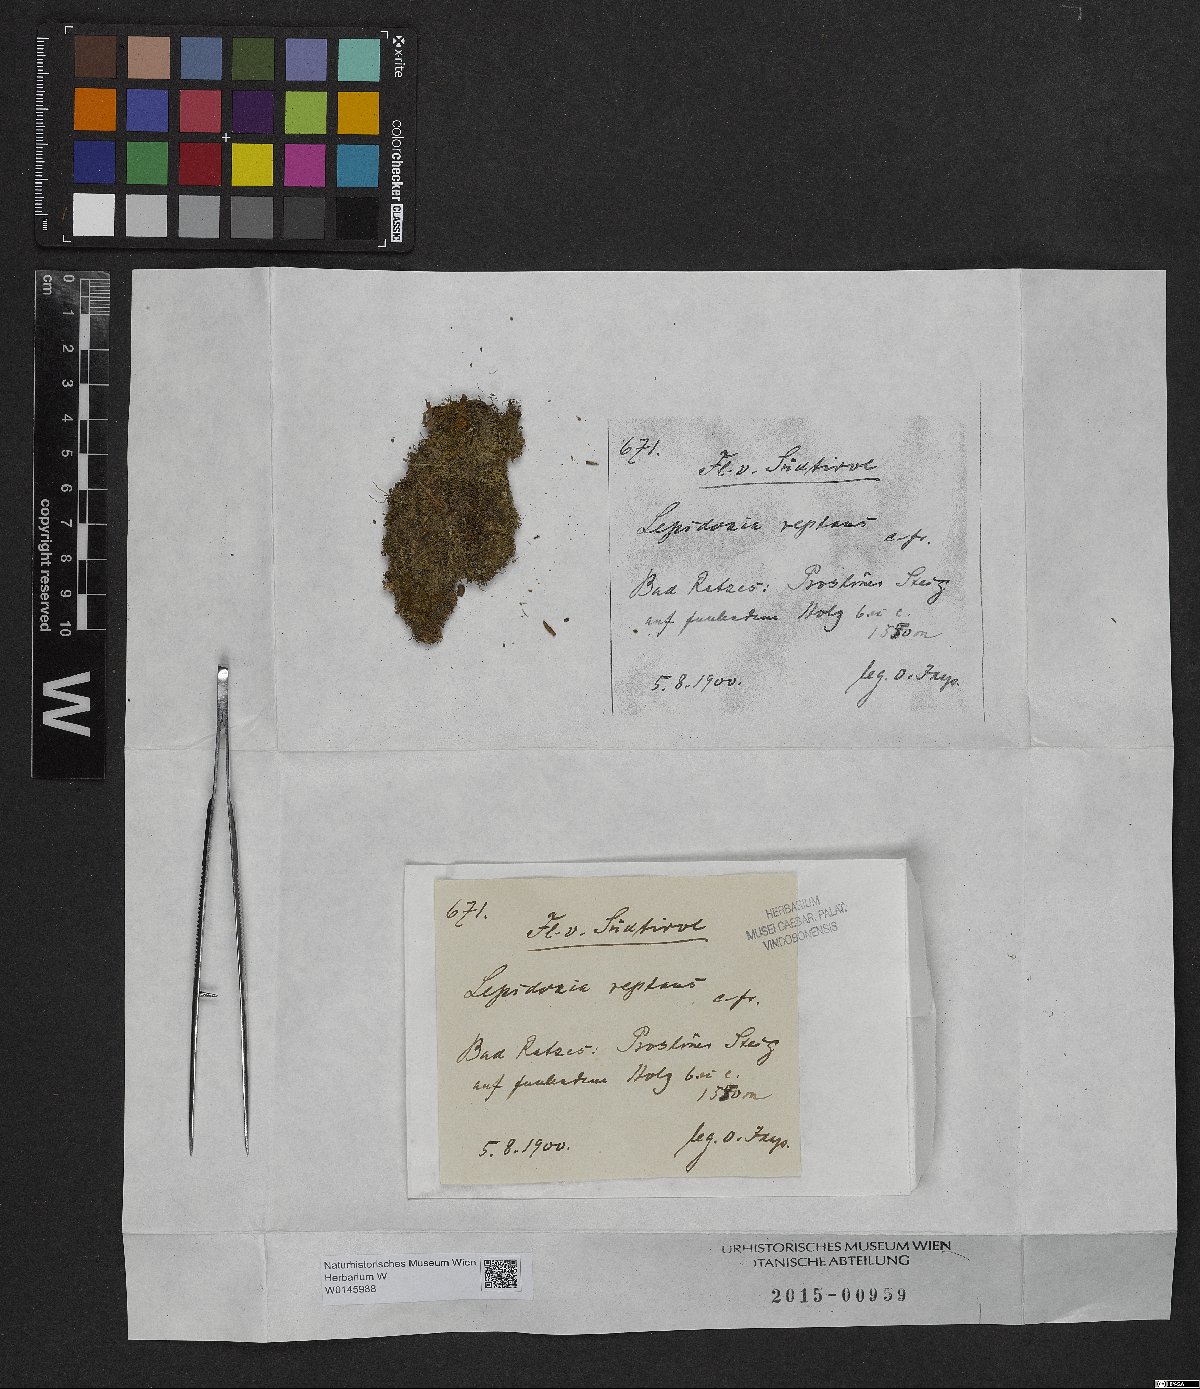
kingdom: Plantae
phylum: Marchantiophyta
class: Jungermanniopsida
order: Jungermanniales
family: Lepidoziaceae
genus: Lepidozia
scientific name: Lepidozia reptans
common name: Creeping fingerwort
